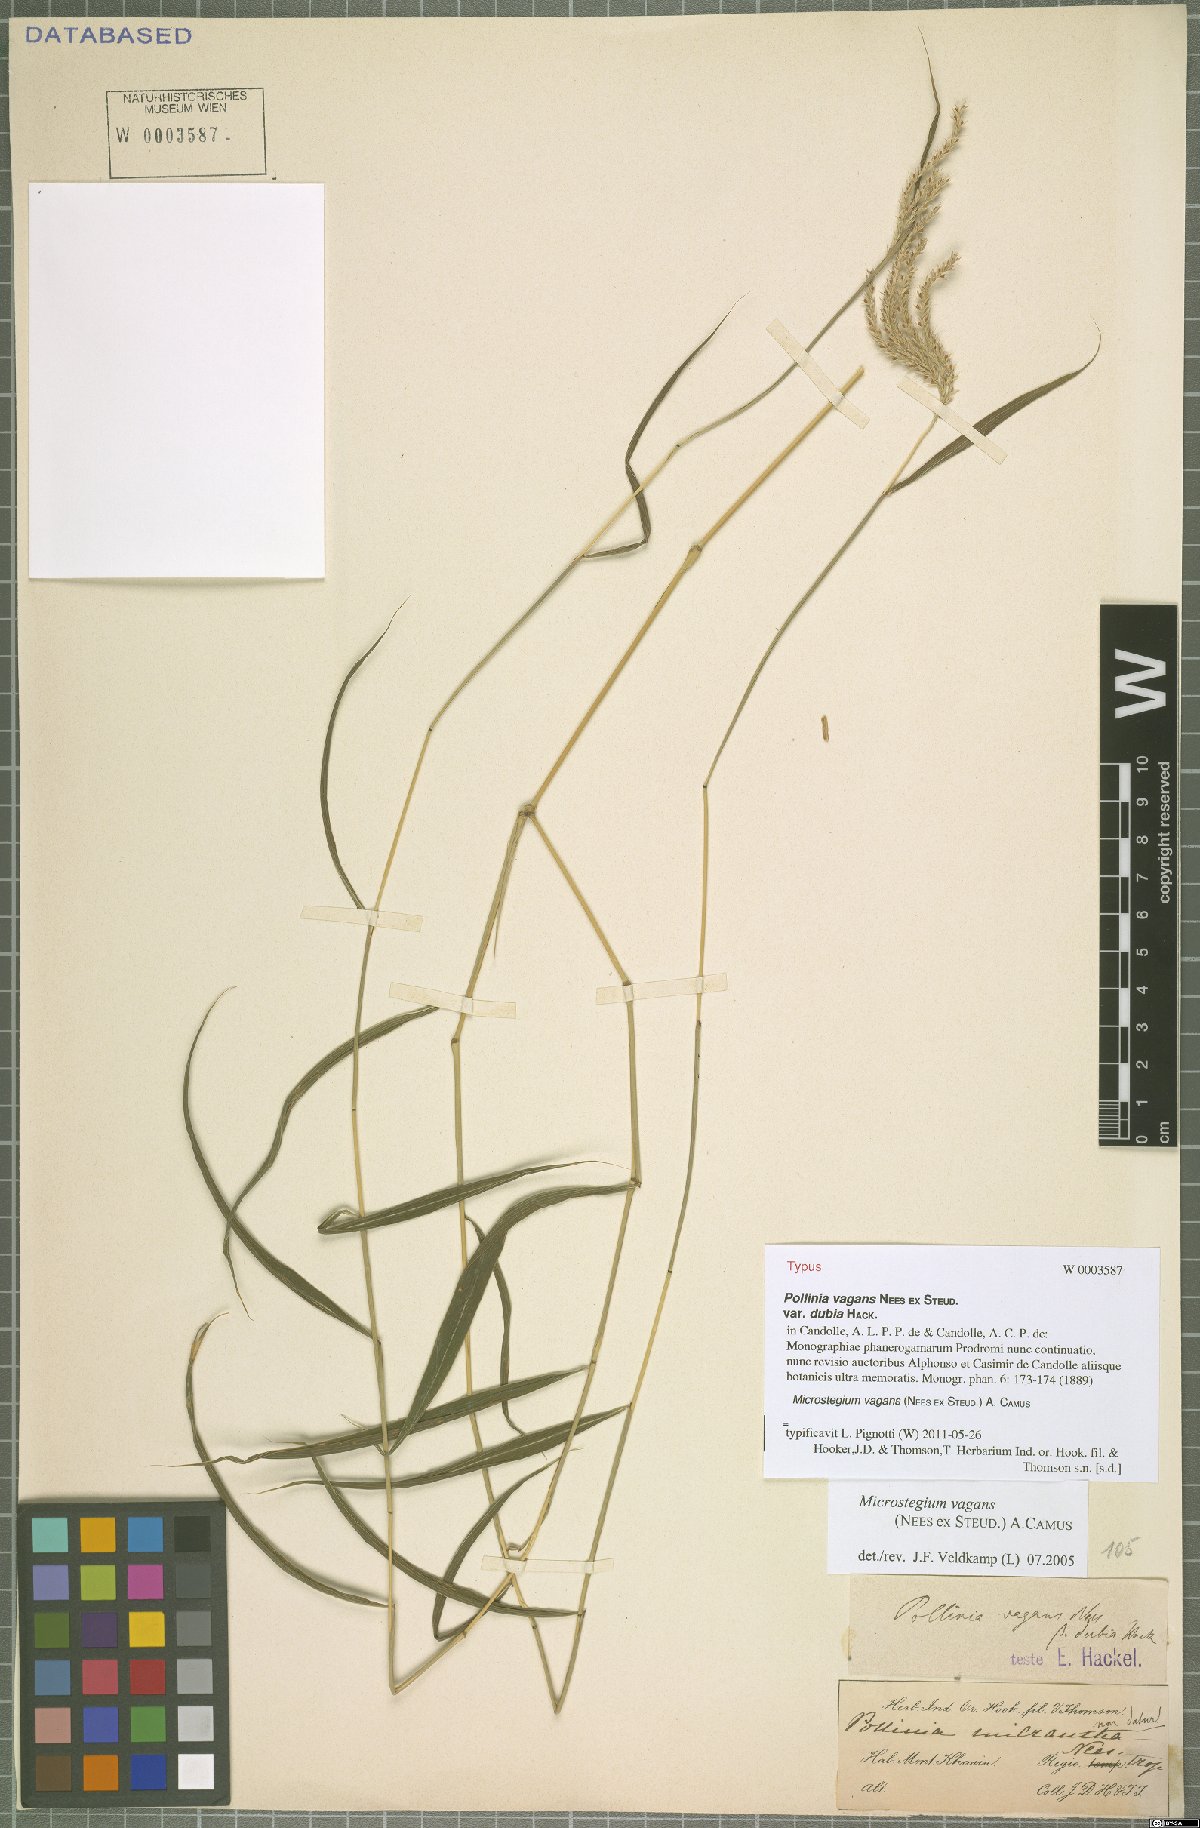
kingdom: Plantae
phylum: Tracheophyta
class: Liliopsida
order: Poales
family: Poaceae
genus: Microstegium
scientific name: Microstegium fasciculatum
